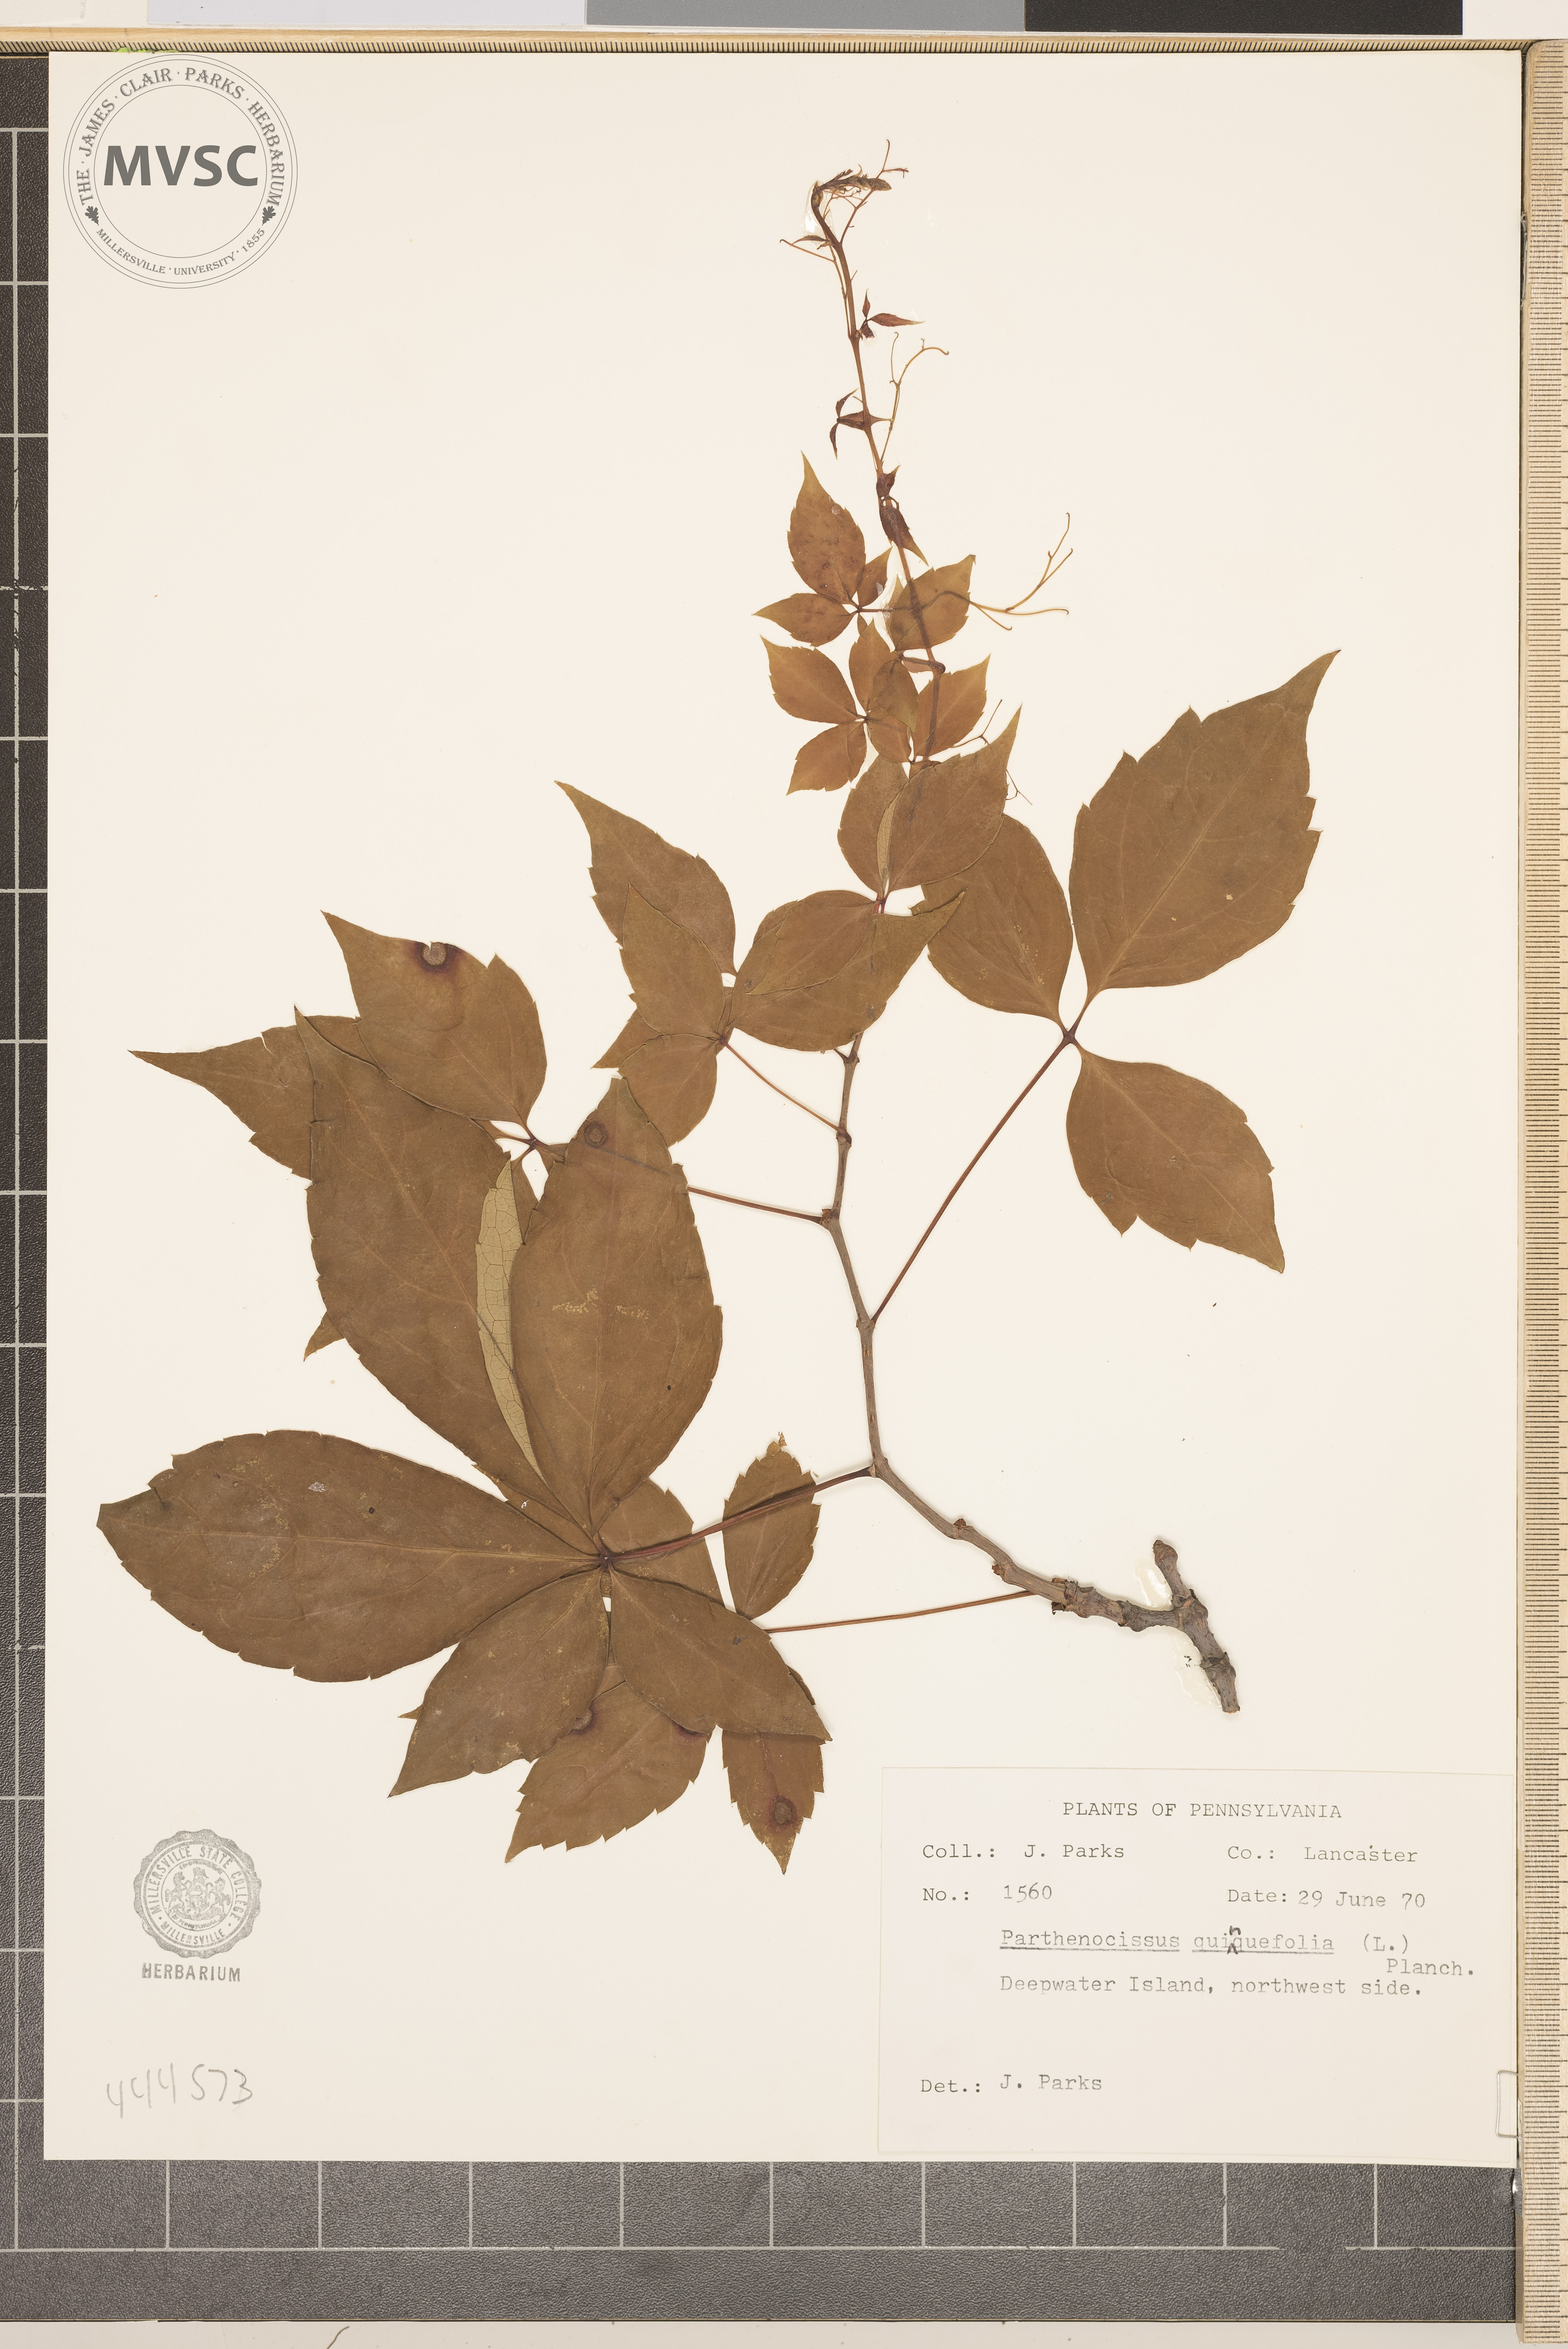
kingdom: Plantae
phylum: Tracheophyta
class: Magnoliopsida
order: Vitales
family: Vitaceae
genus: Parthenocissus
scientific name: Parthenocissus quinquefolia
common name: Virginia-creeper
